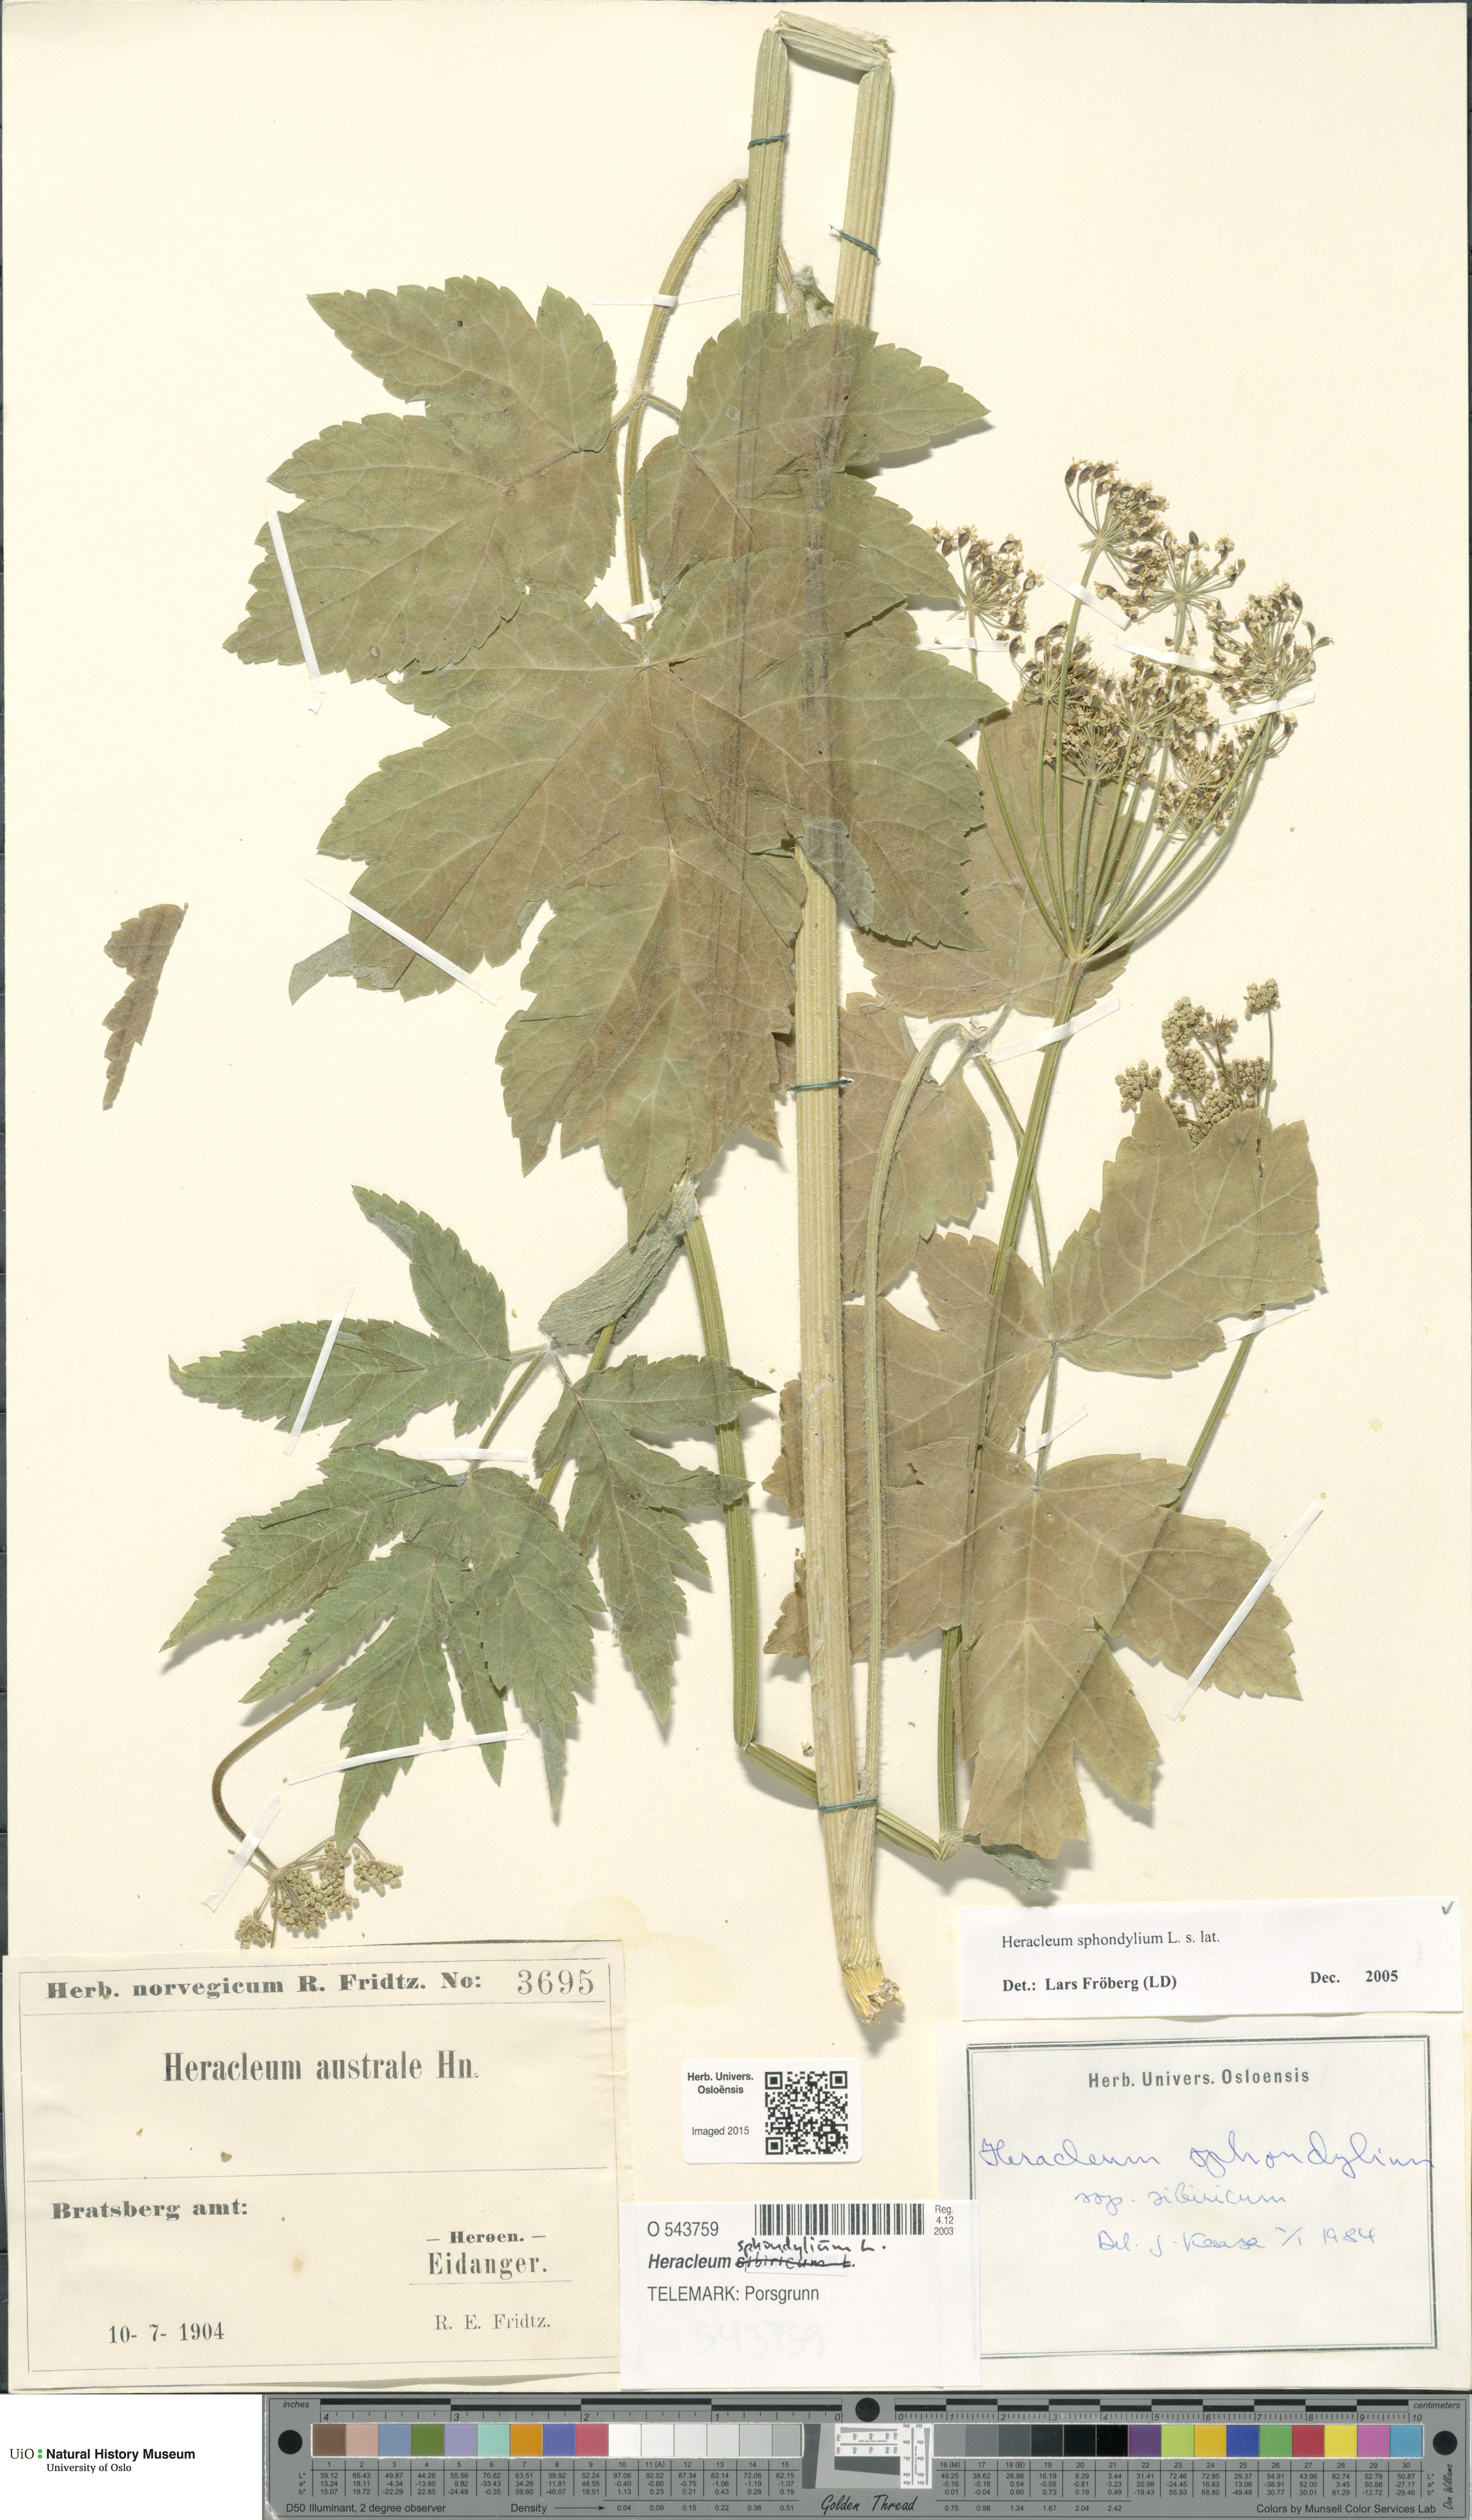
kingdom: Plantae
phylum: Tracheophyta
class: Magnoliopsida
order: Apiales
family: Apiaceae
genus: Heracleum
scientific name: Heracleum sphondylium
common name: Hogweed
